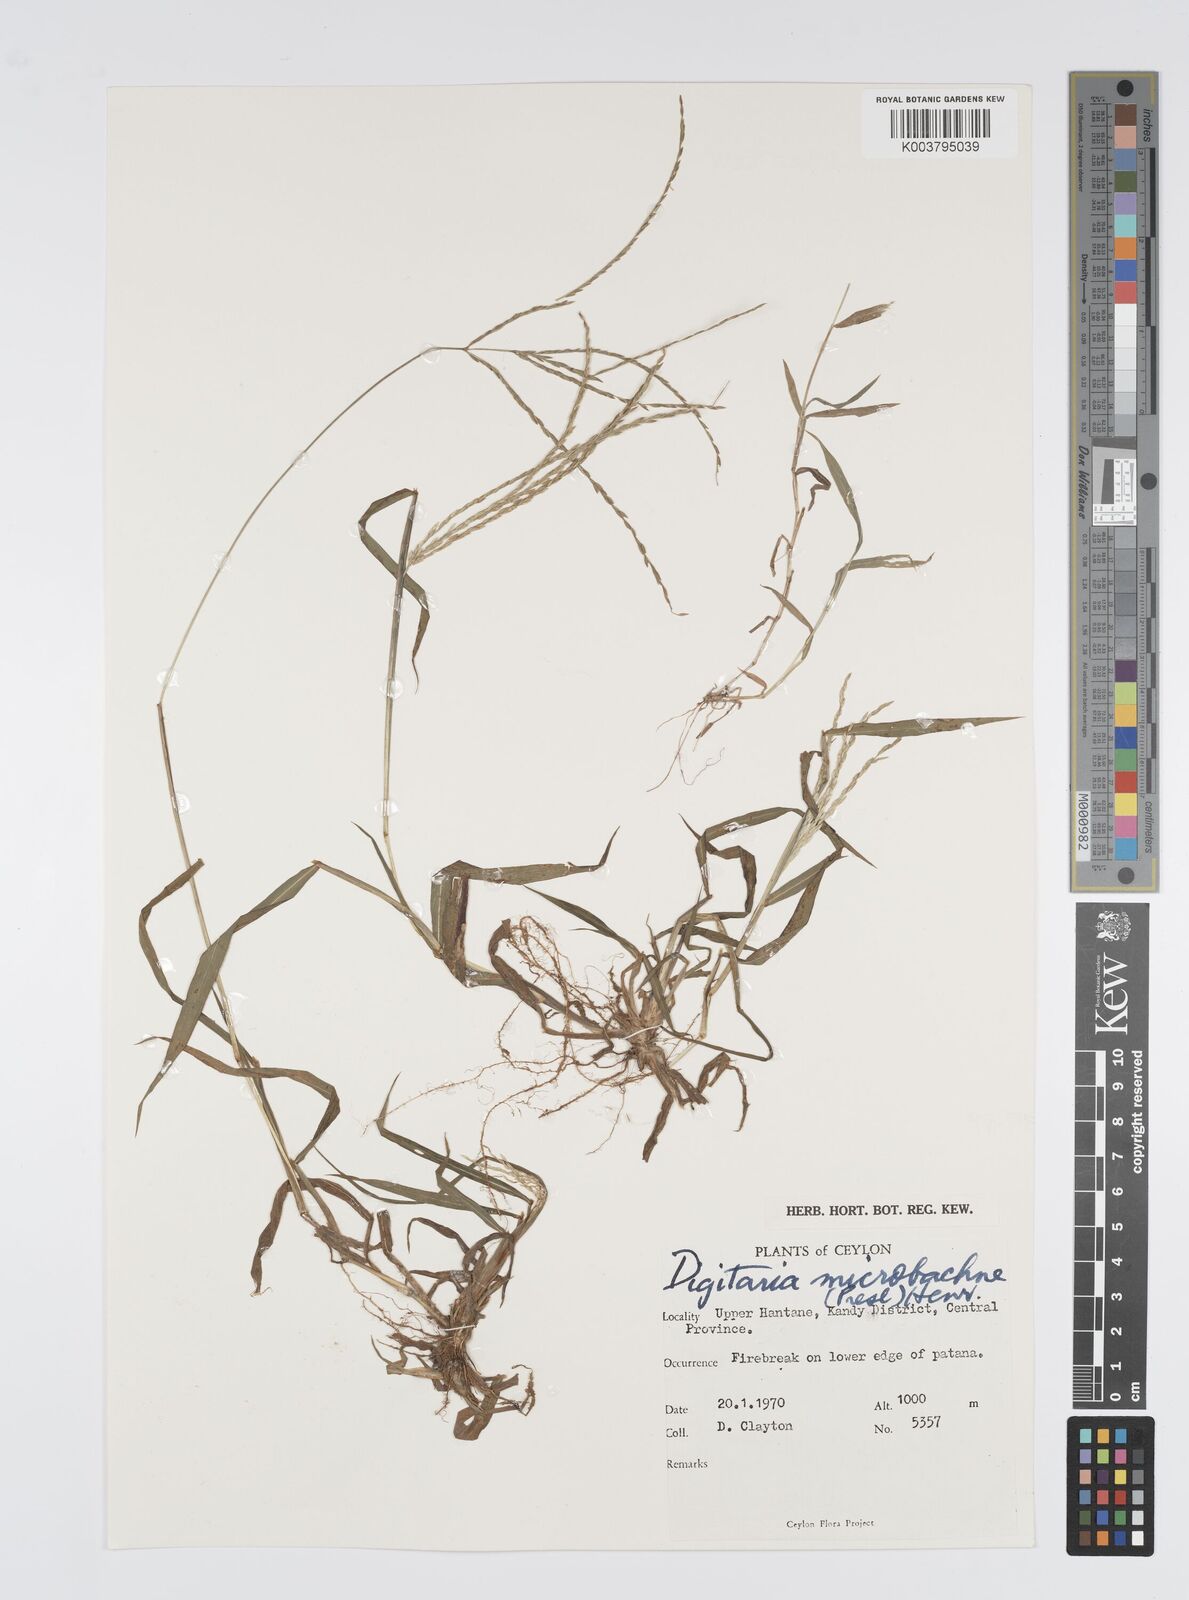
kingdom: Plantae
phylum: Tracheophyta
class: Liliopsida
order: Poales
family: Poaceae
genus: Digitaria
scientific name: Digitaria setigera
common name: East indian crabgrass
